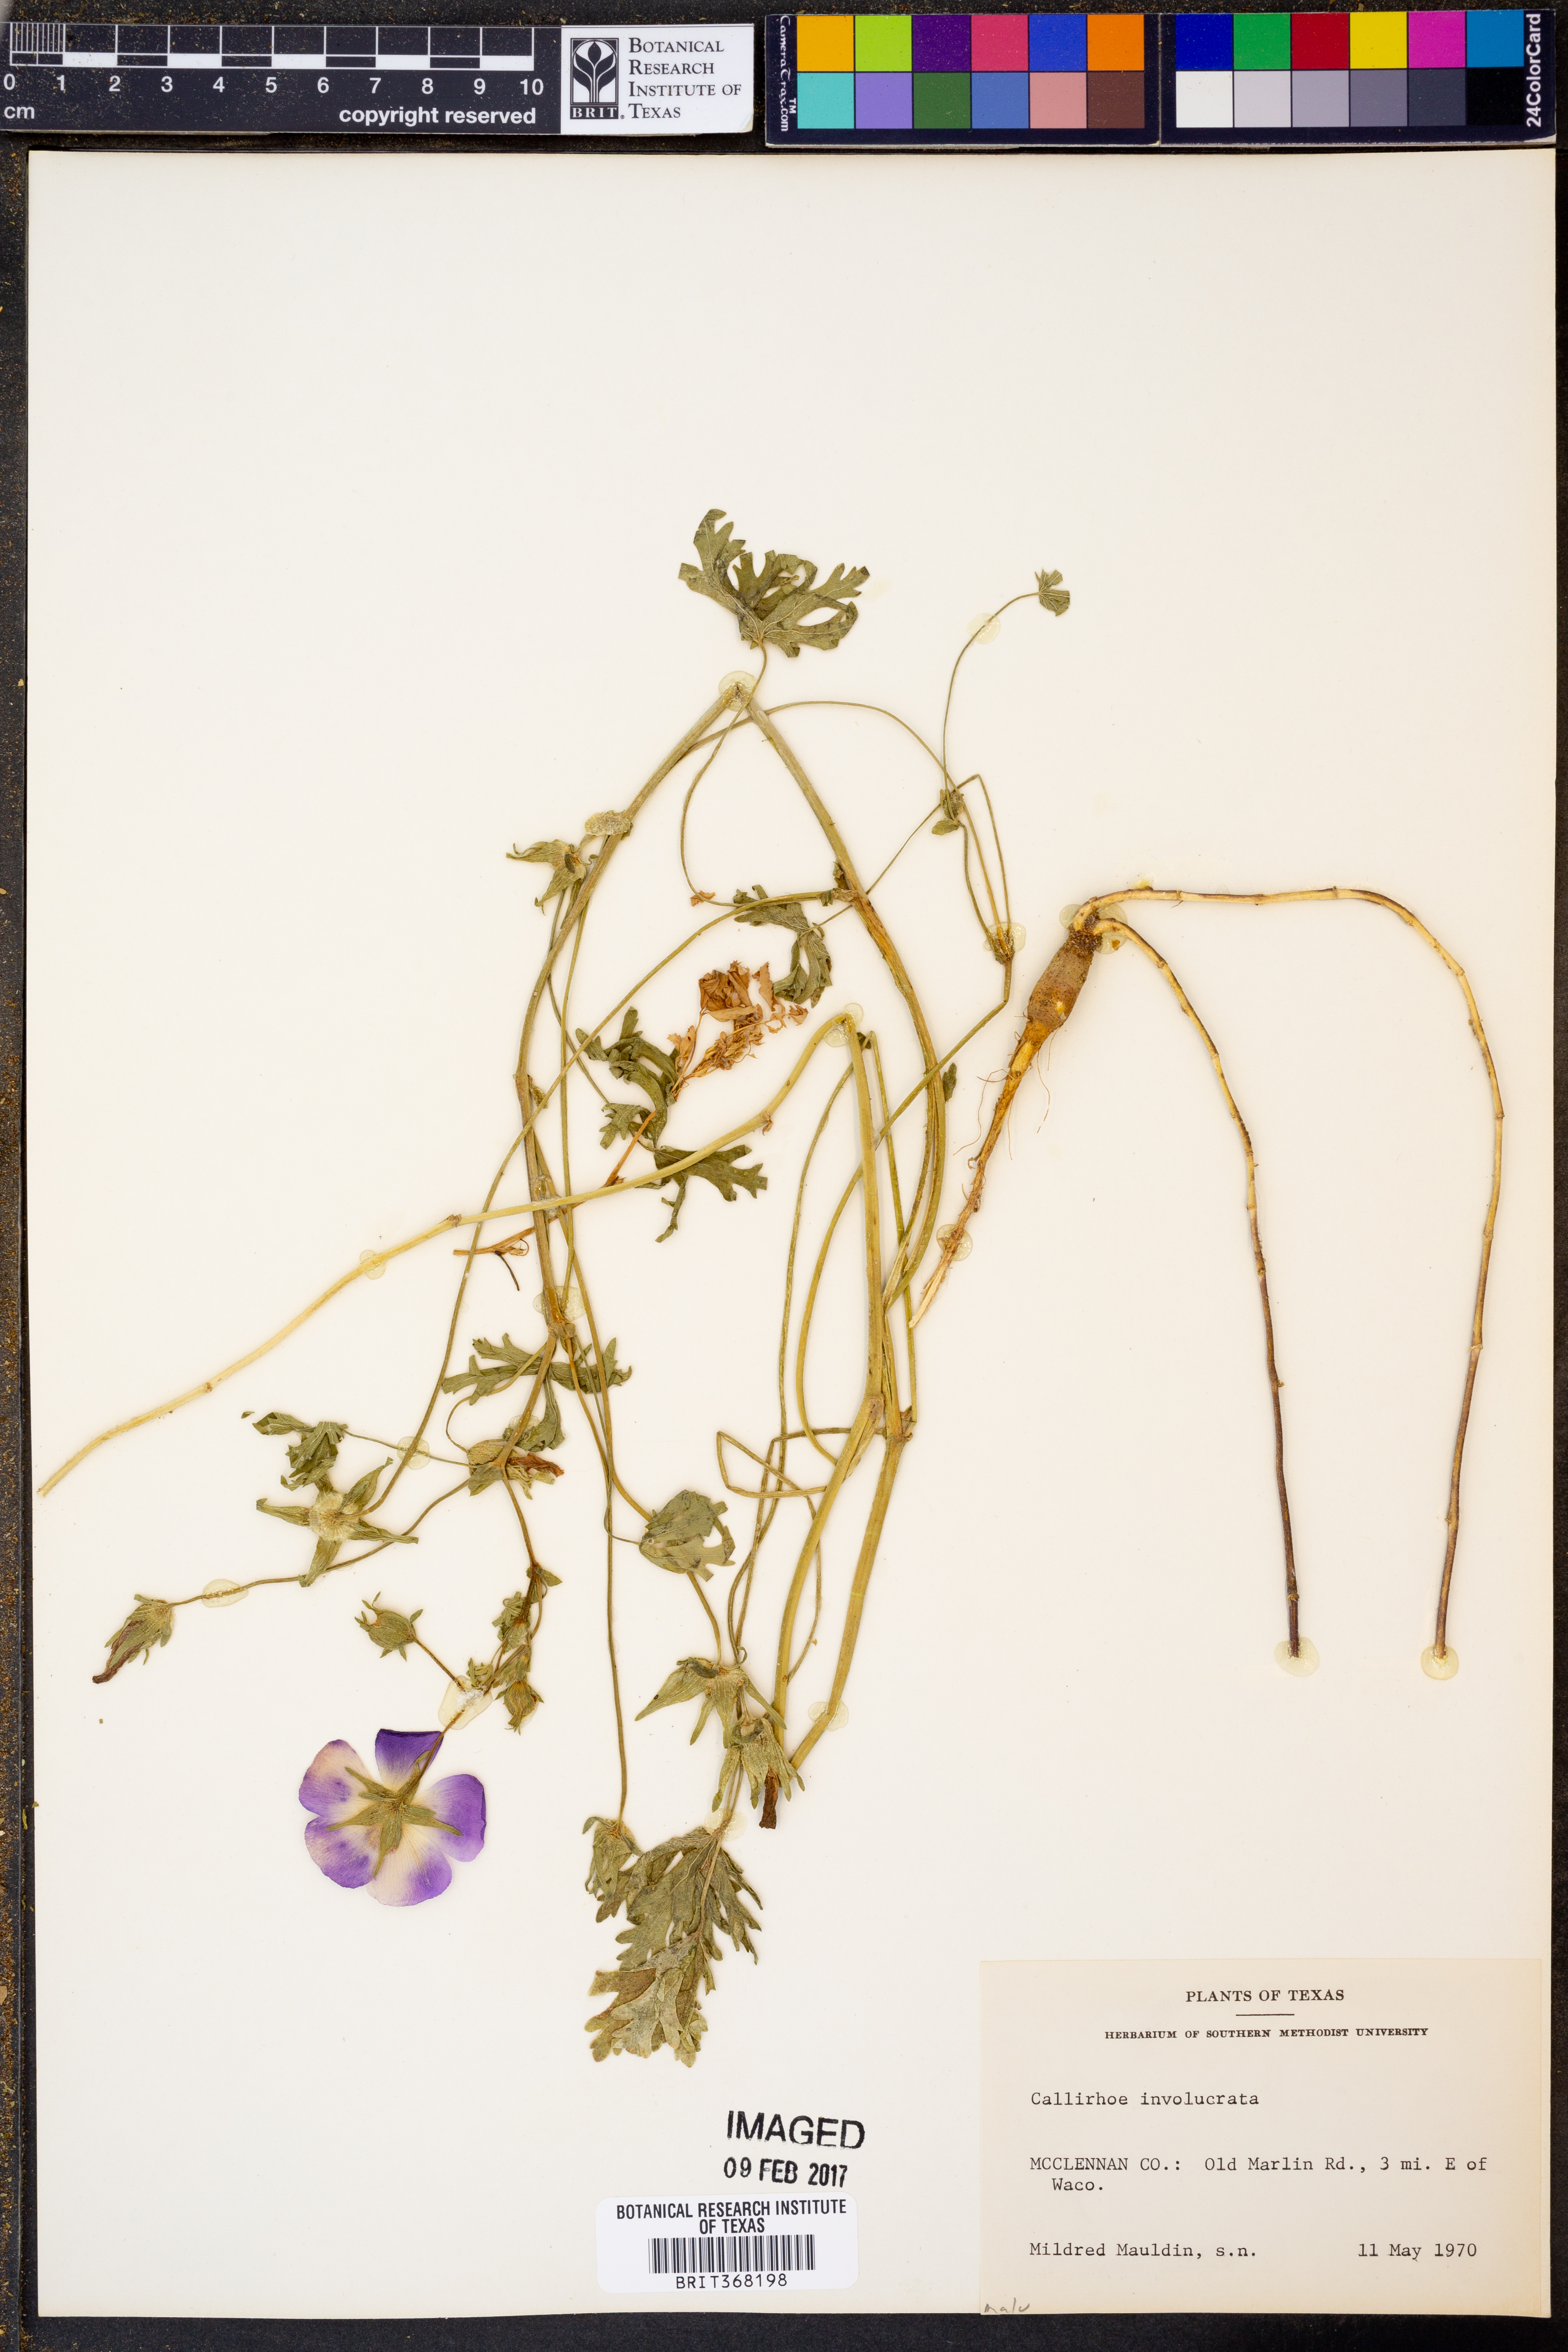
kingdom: Plantae
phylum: Tracheophyta
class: Magnoliopsida
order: Malvales
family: Malvaceae
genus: Callirhoe
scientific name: Callirhoe involucrata
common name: Purple poppy-mallow
